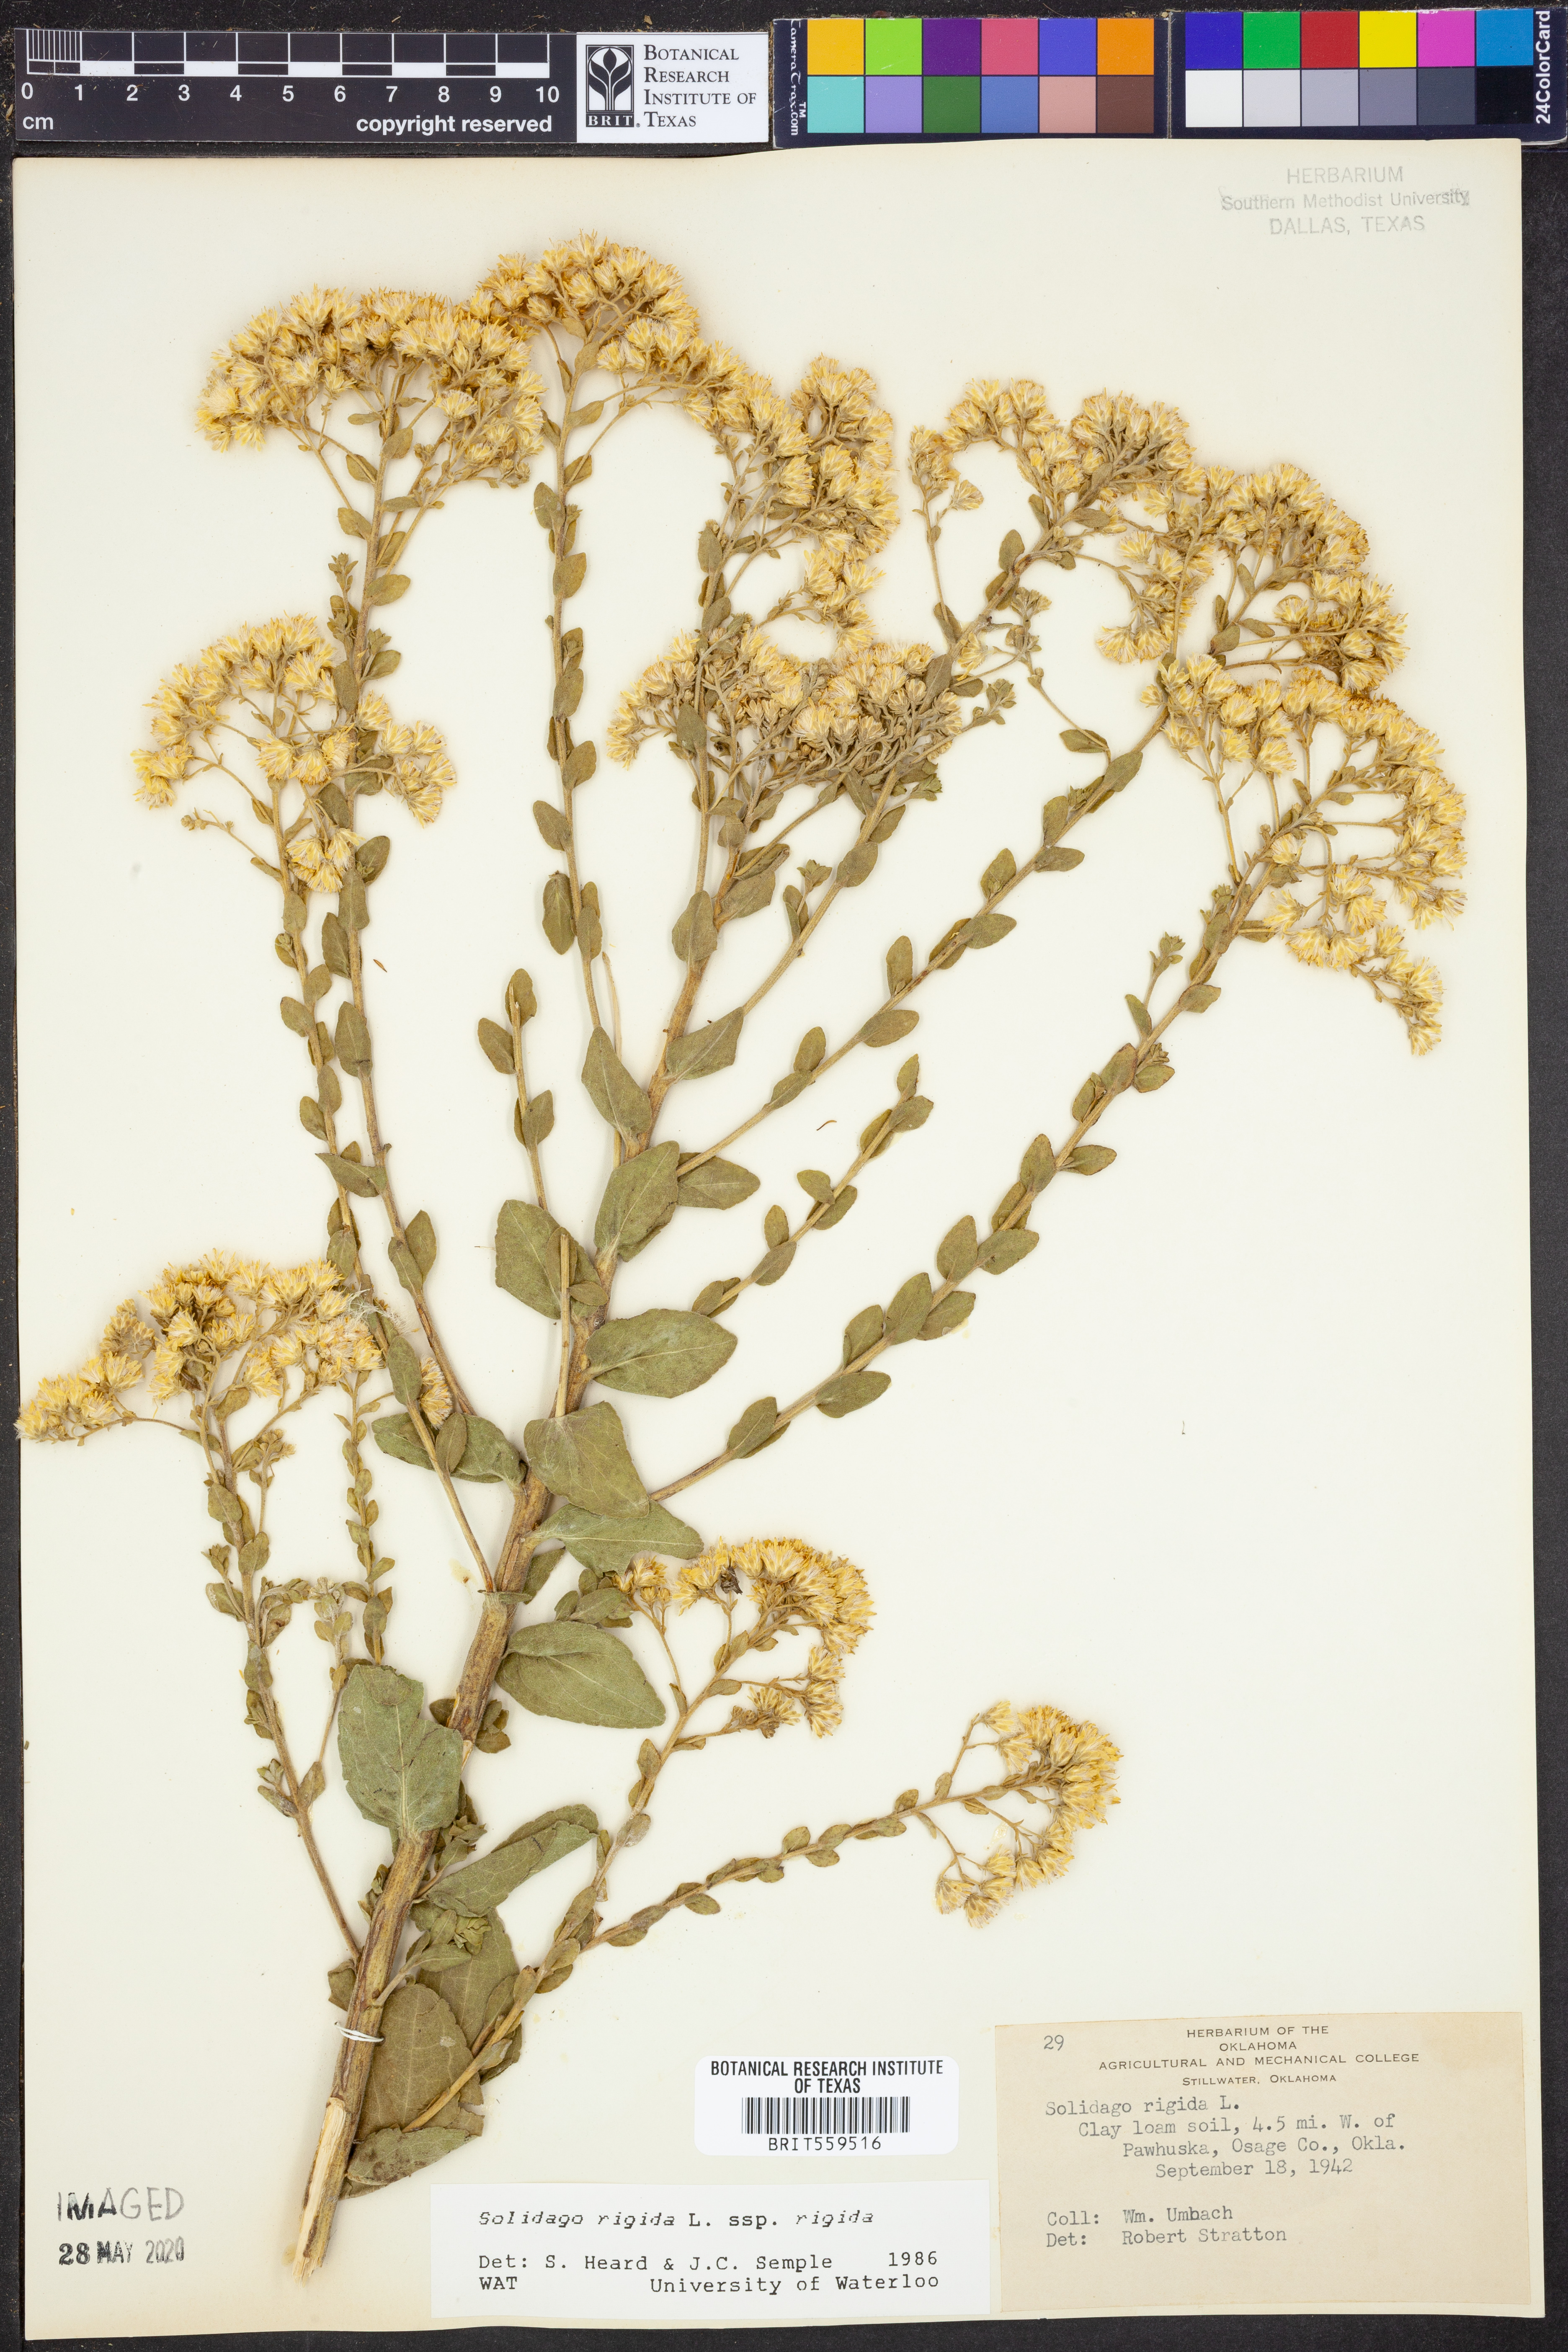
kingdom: Plantae
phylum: Tracheophyta
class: Magnoliopsida
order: Asterales
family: Asteraceae
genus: Solidago
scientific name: Solidago rigida
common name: Rigid goldenrod
